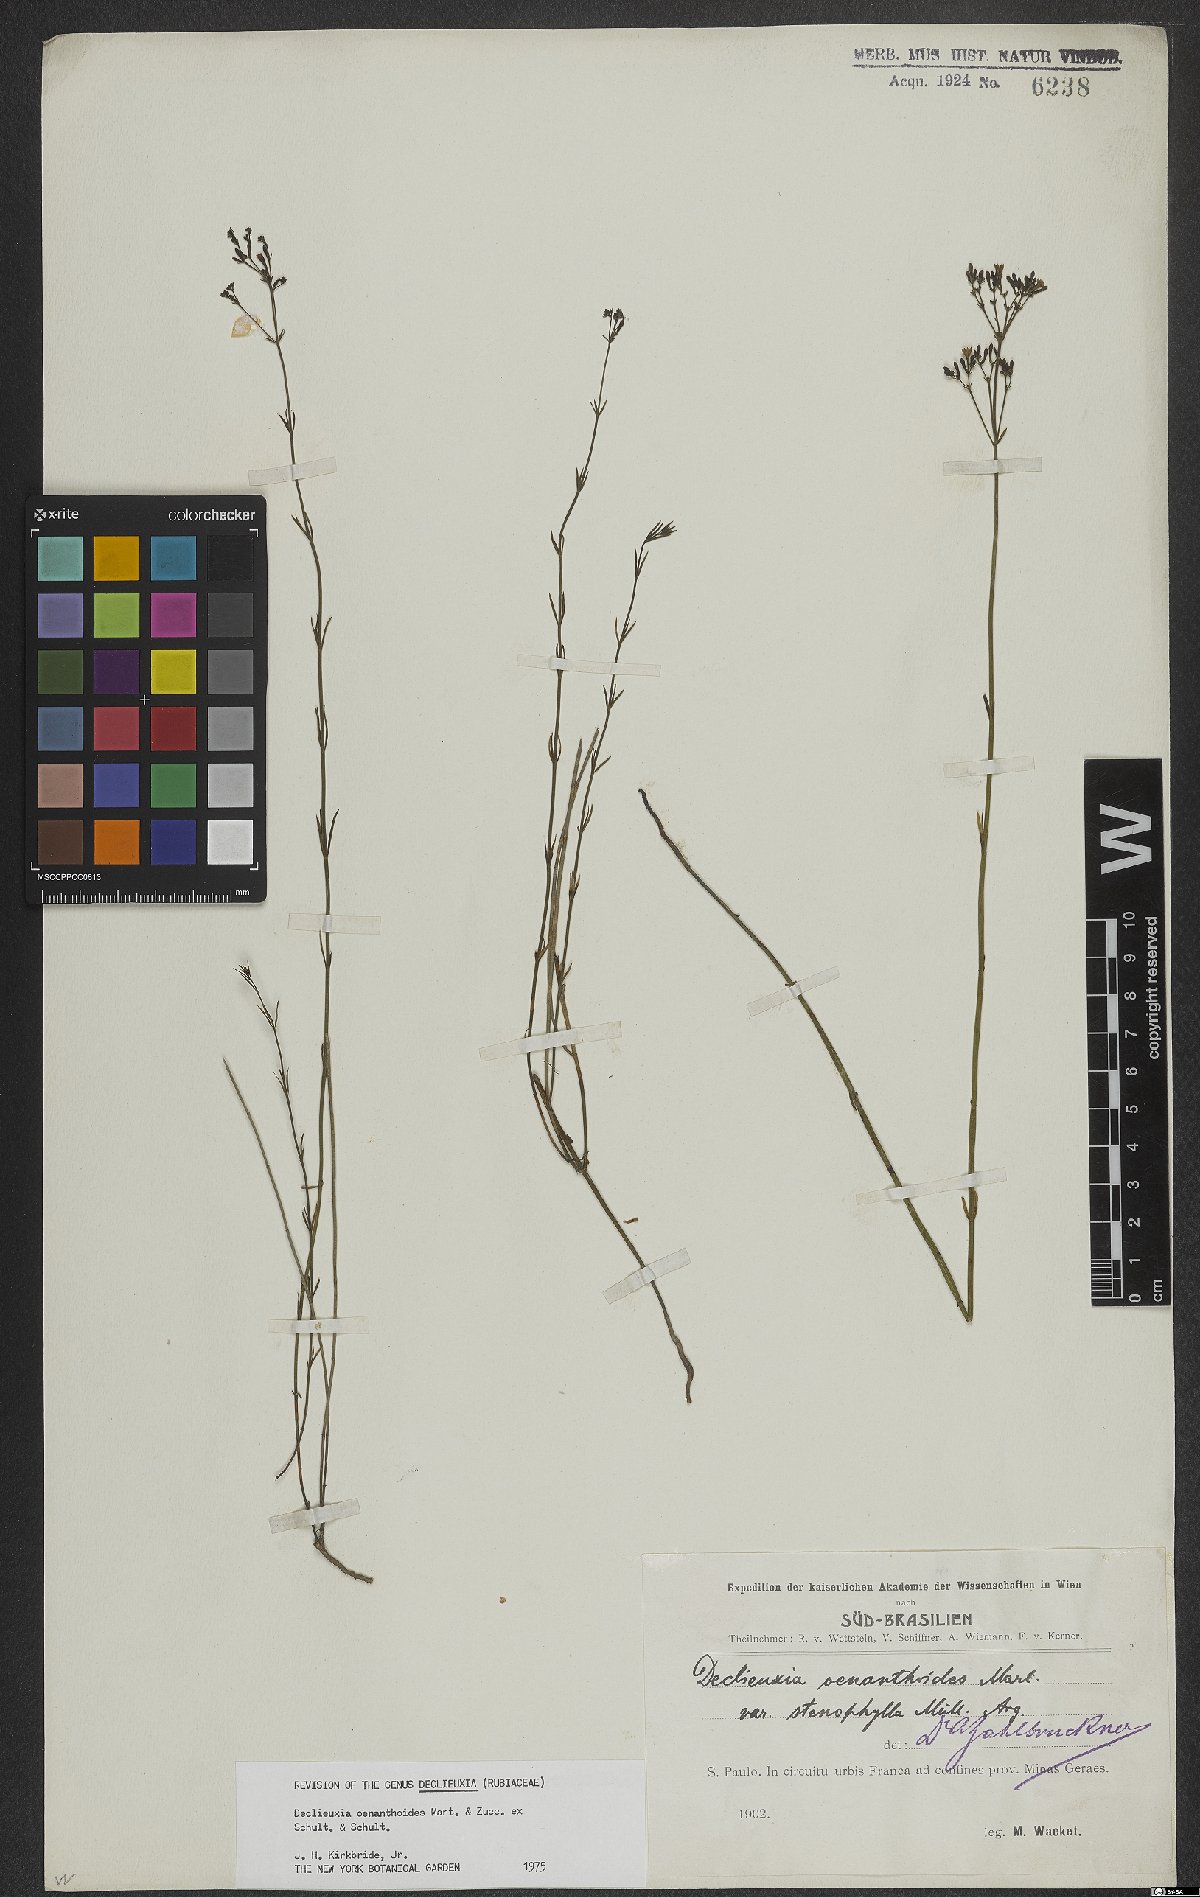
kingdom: Plantae
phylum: Tracheophyta
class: Magnoliopsida
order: Gentianales
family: Rubiaceae
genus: Declieuxia
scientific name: Declieuxia oenanthoides
